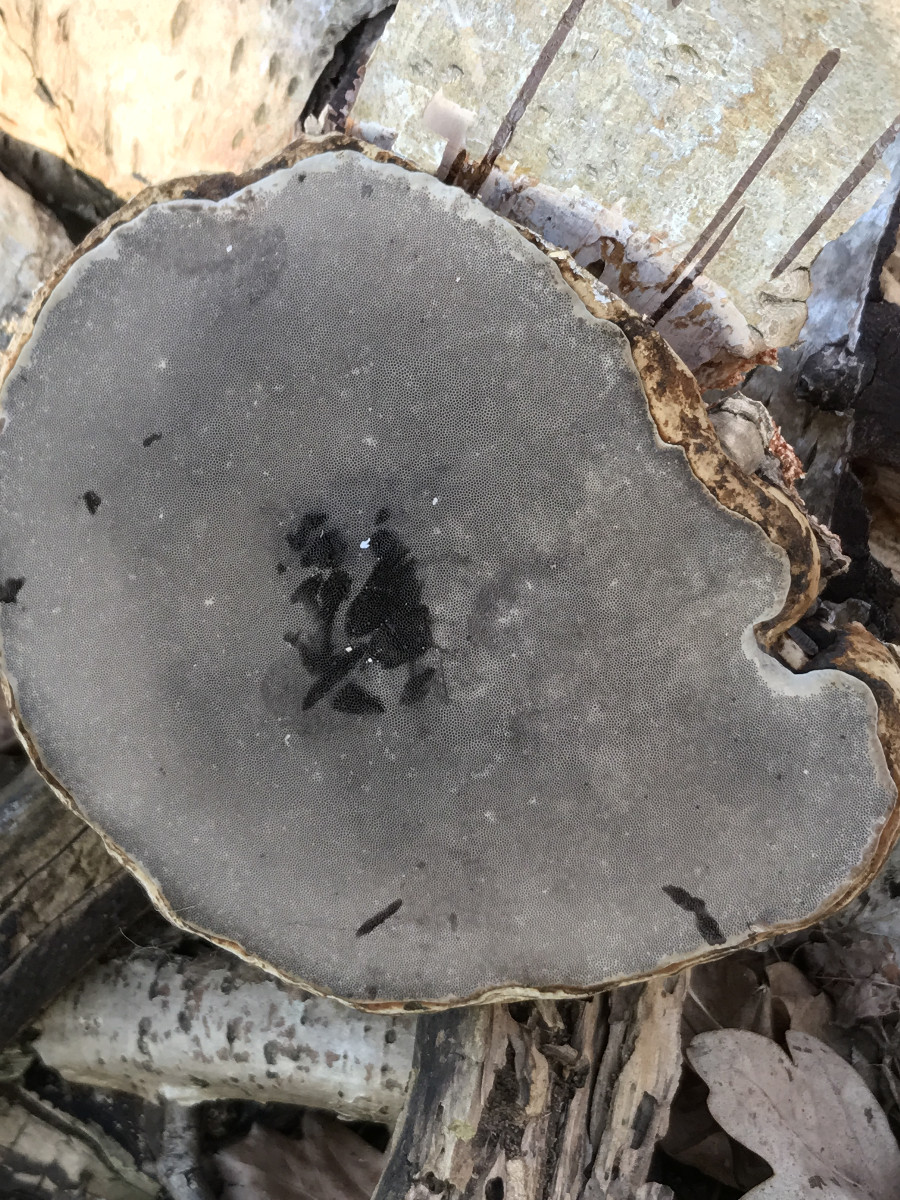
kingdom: Fungi
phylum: Basidiomycota
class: Agaricomycetes
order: Polyporales
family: Polyporaceae
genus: Fomes
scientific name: Fomes fomentarius
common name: tøndersvamp
